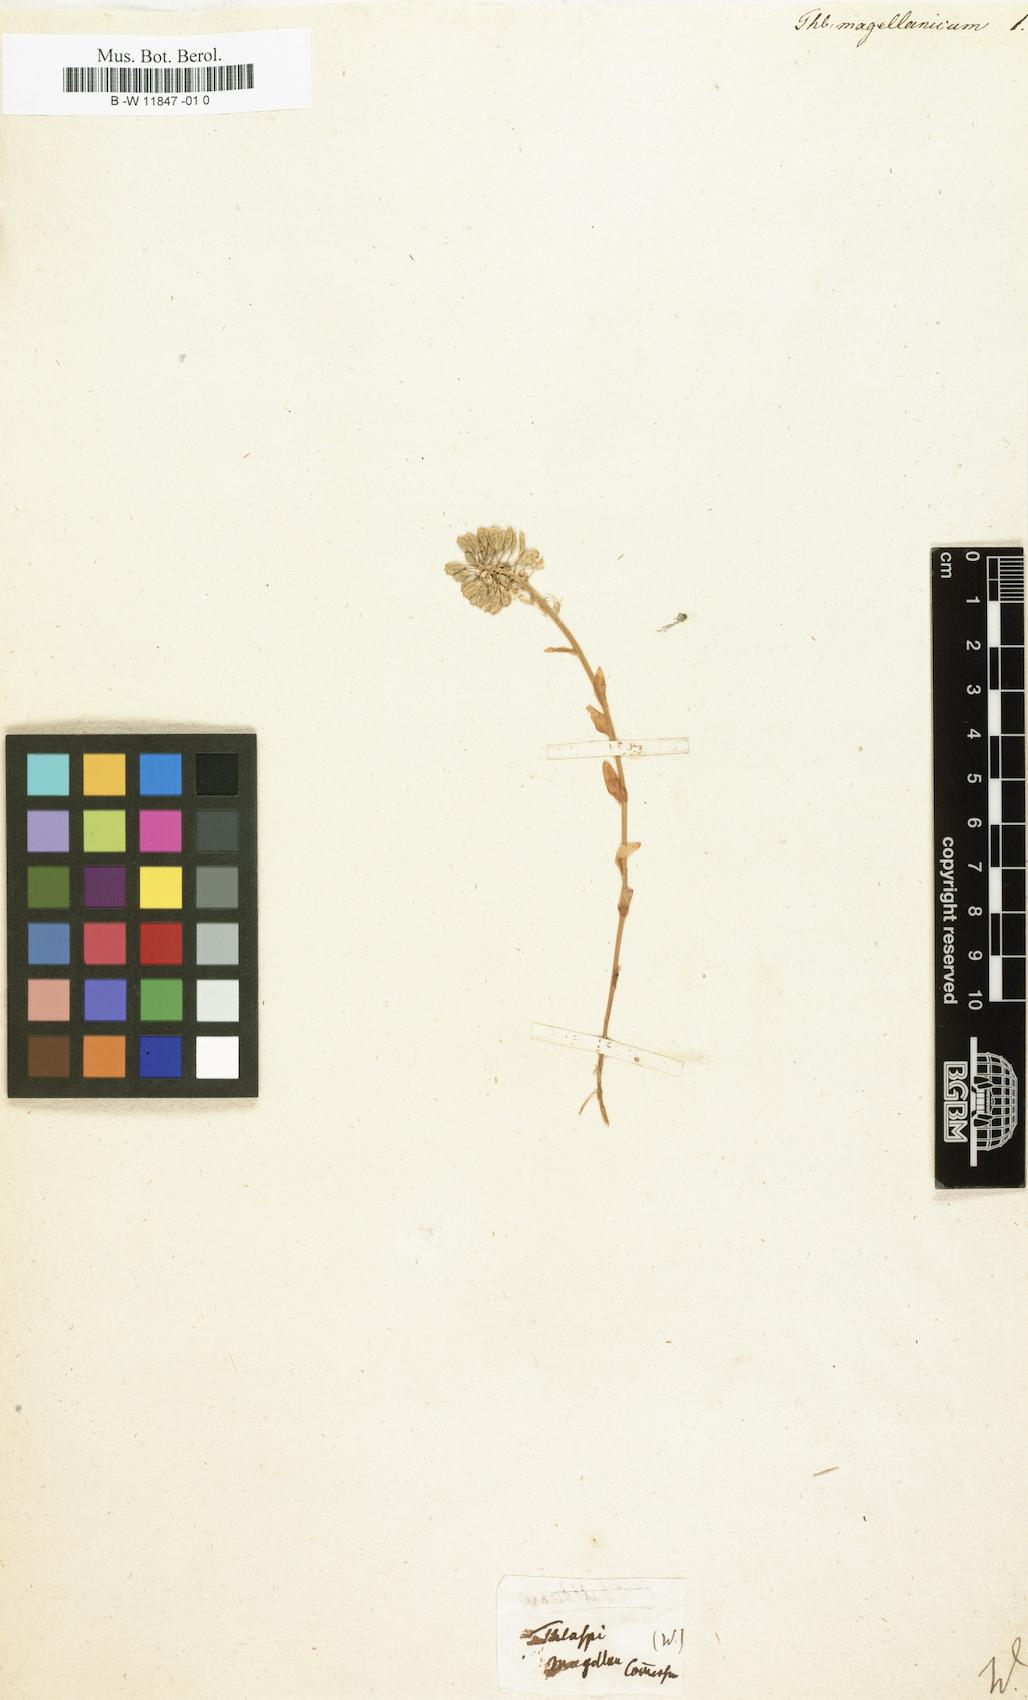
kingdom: Plantae
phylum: Tracheophyta
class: Magnoliopsida
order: Brassicales
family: Brassicaceae
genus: Noccaea
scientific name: Noccaea magellanica
